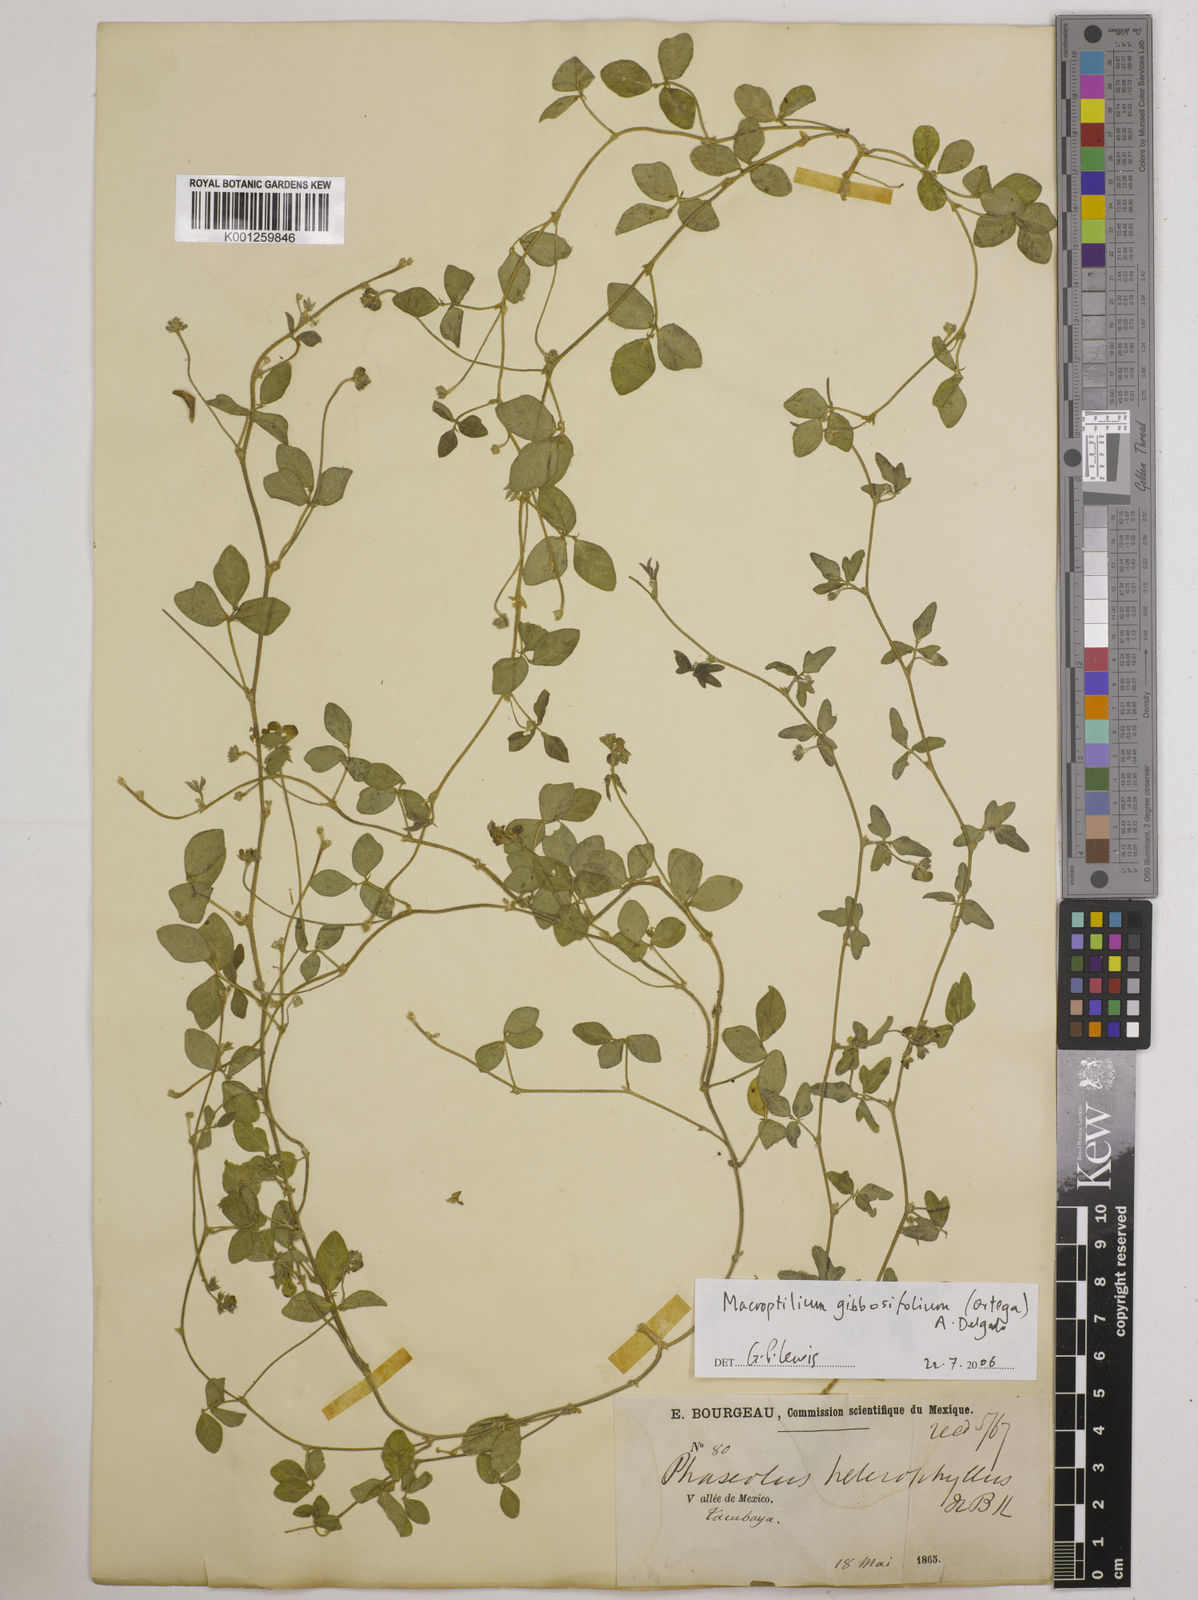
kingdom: Plantae
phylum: Tracheophyta
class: Magnoliopsida
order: Fabales
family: Fabaceae
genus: Macroptilium
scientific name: Macroptilium gibbosifolium
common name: Variableleaf bushbean
